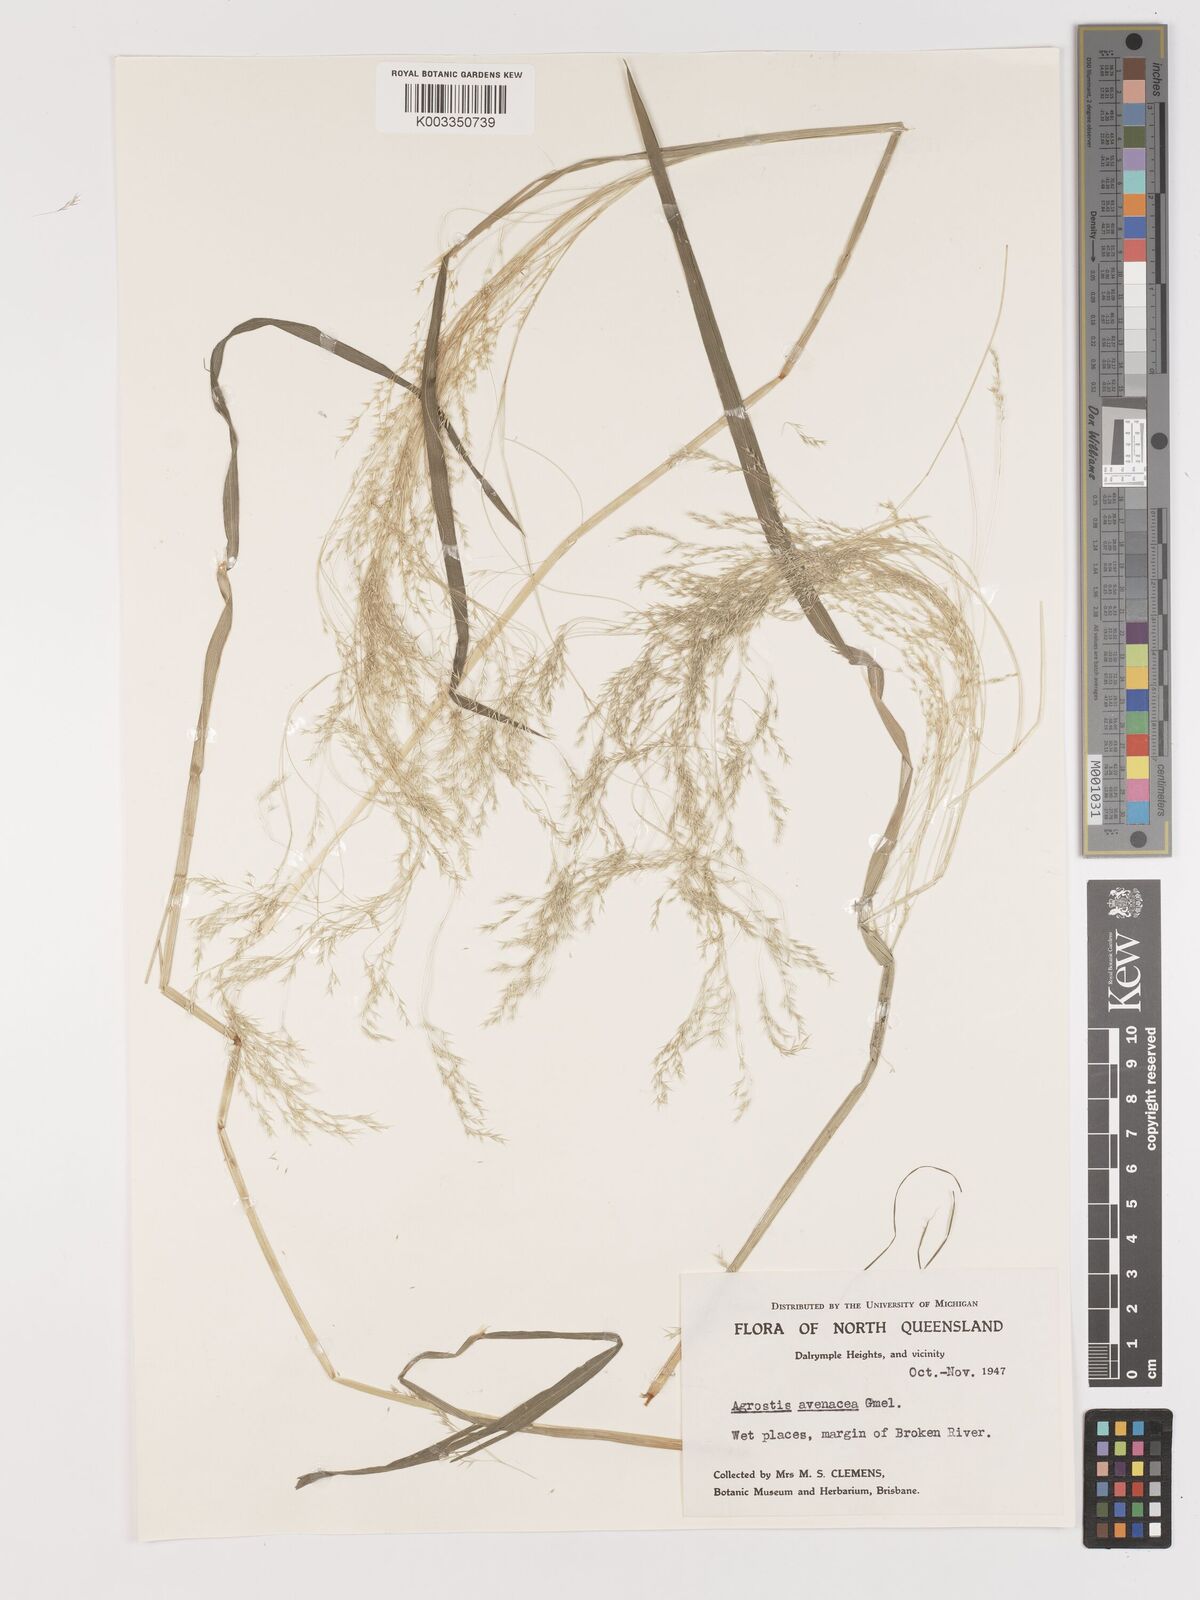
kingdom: Plantae
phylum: Tracheophyta
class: Liliopsida
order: Poales
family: Poaceae
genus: Lachnagrostis
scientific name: Lachnagrostis filiformis
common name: Bentgrass
